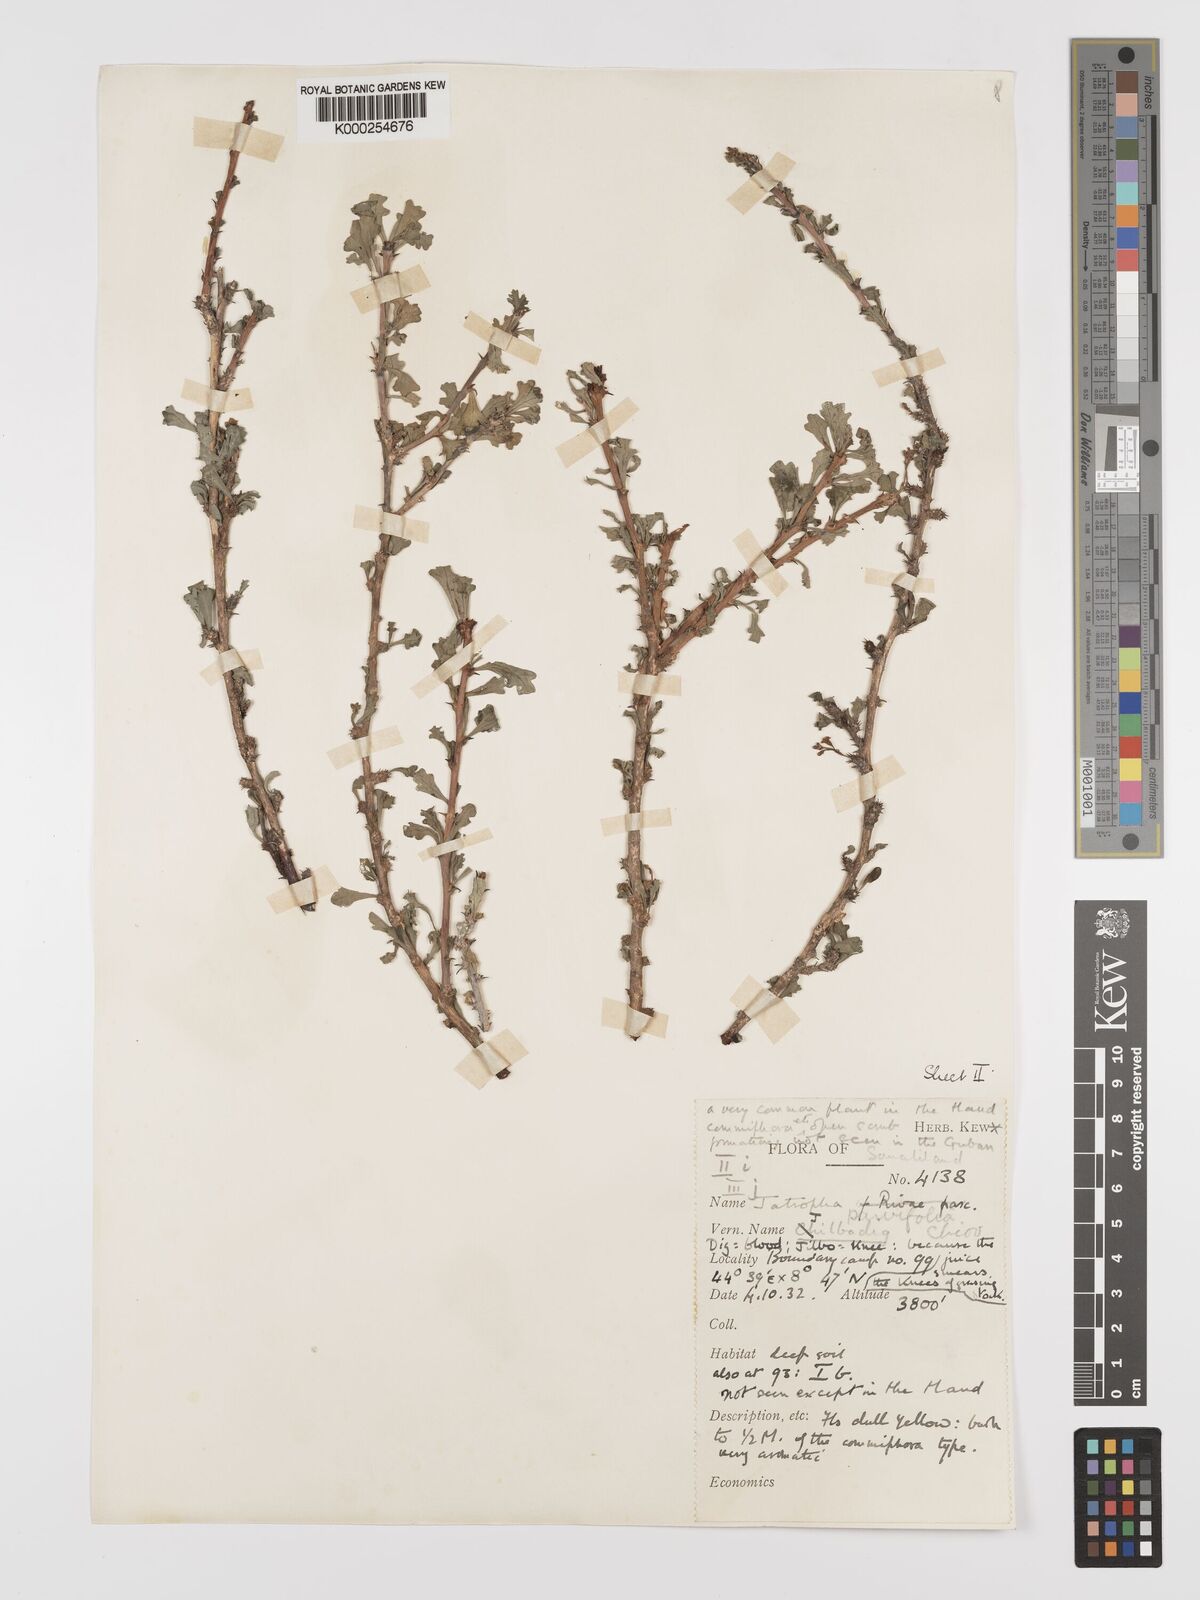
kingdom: Plantae
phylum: Tracheophyta
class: Magnoliopsida
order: Malpighiales
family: Euphorbiaceae
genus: Jatropha
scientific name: Jatropha rivae
